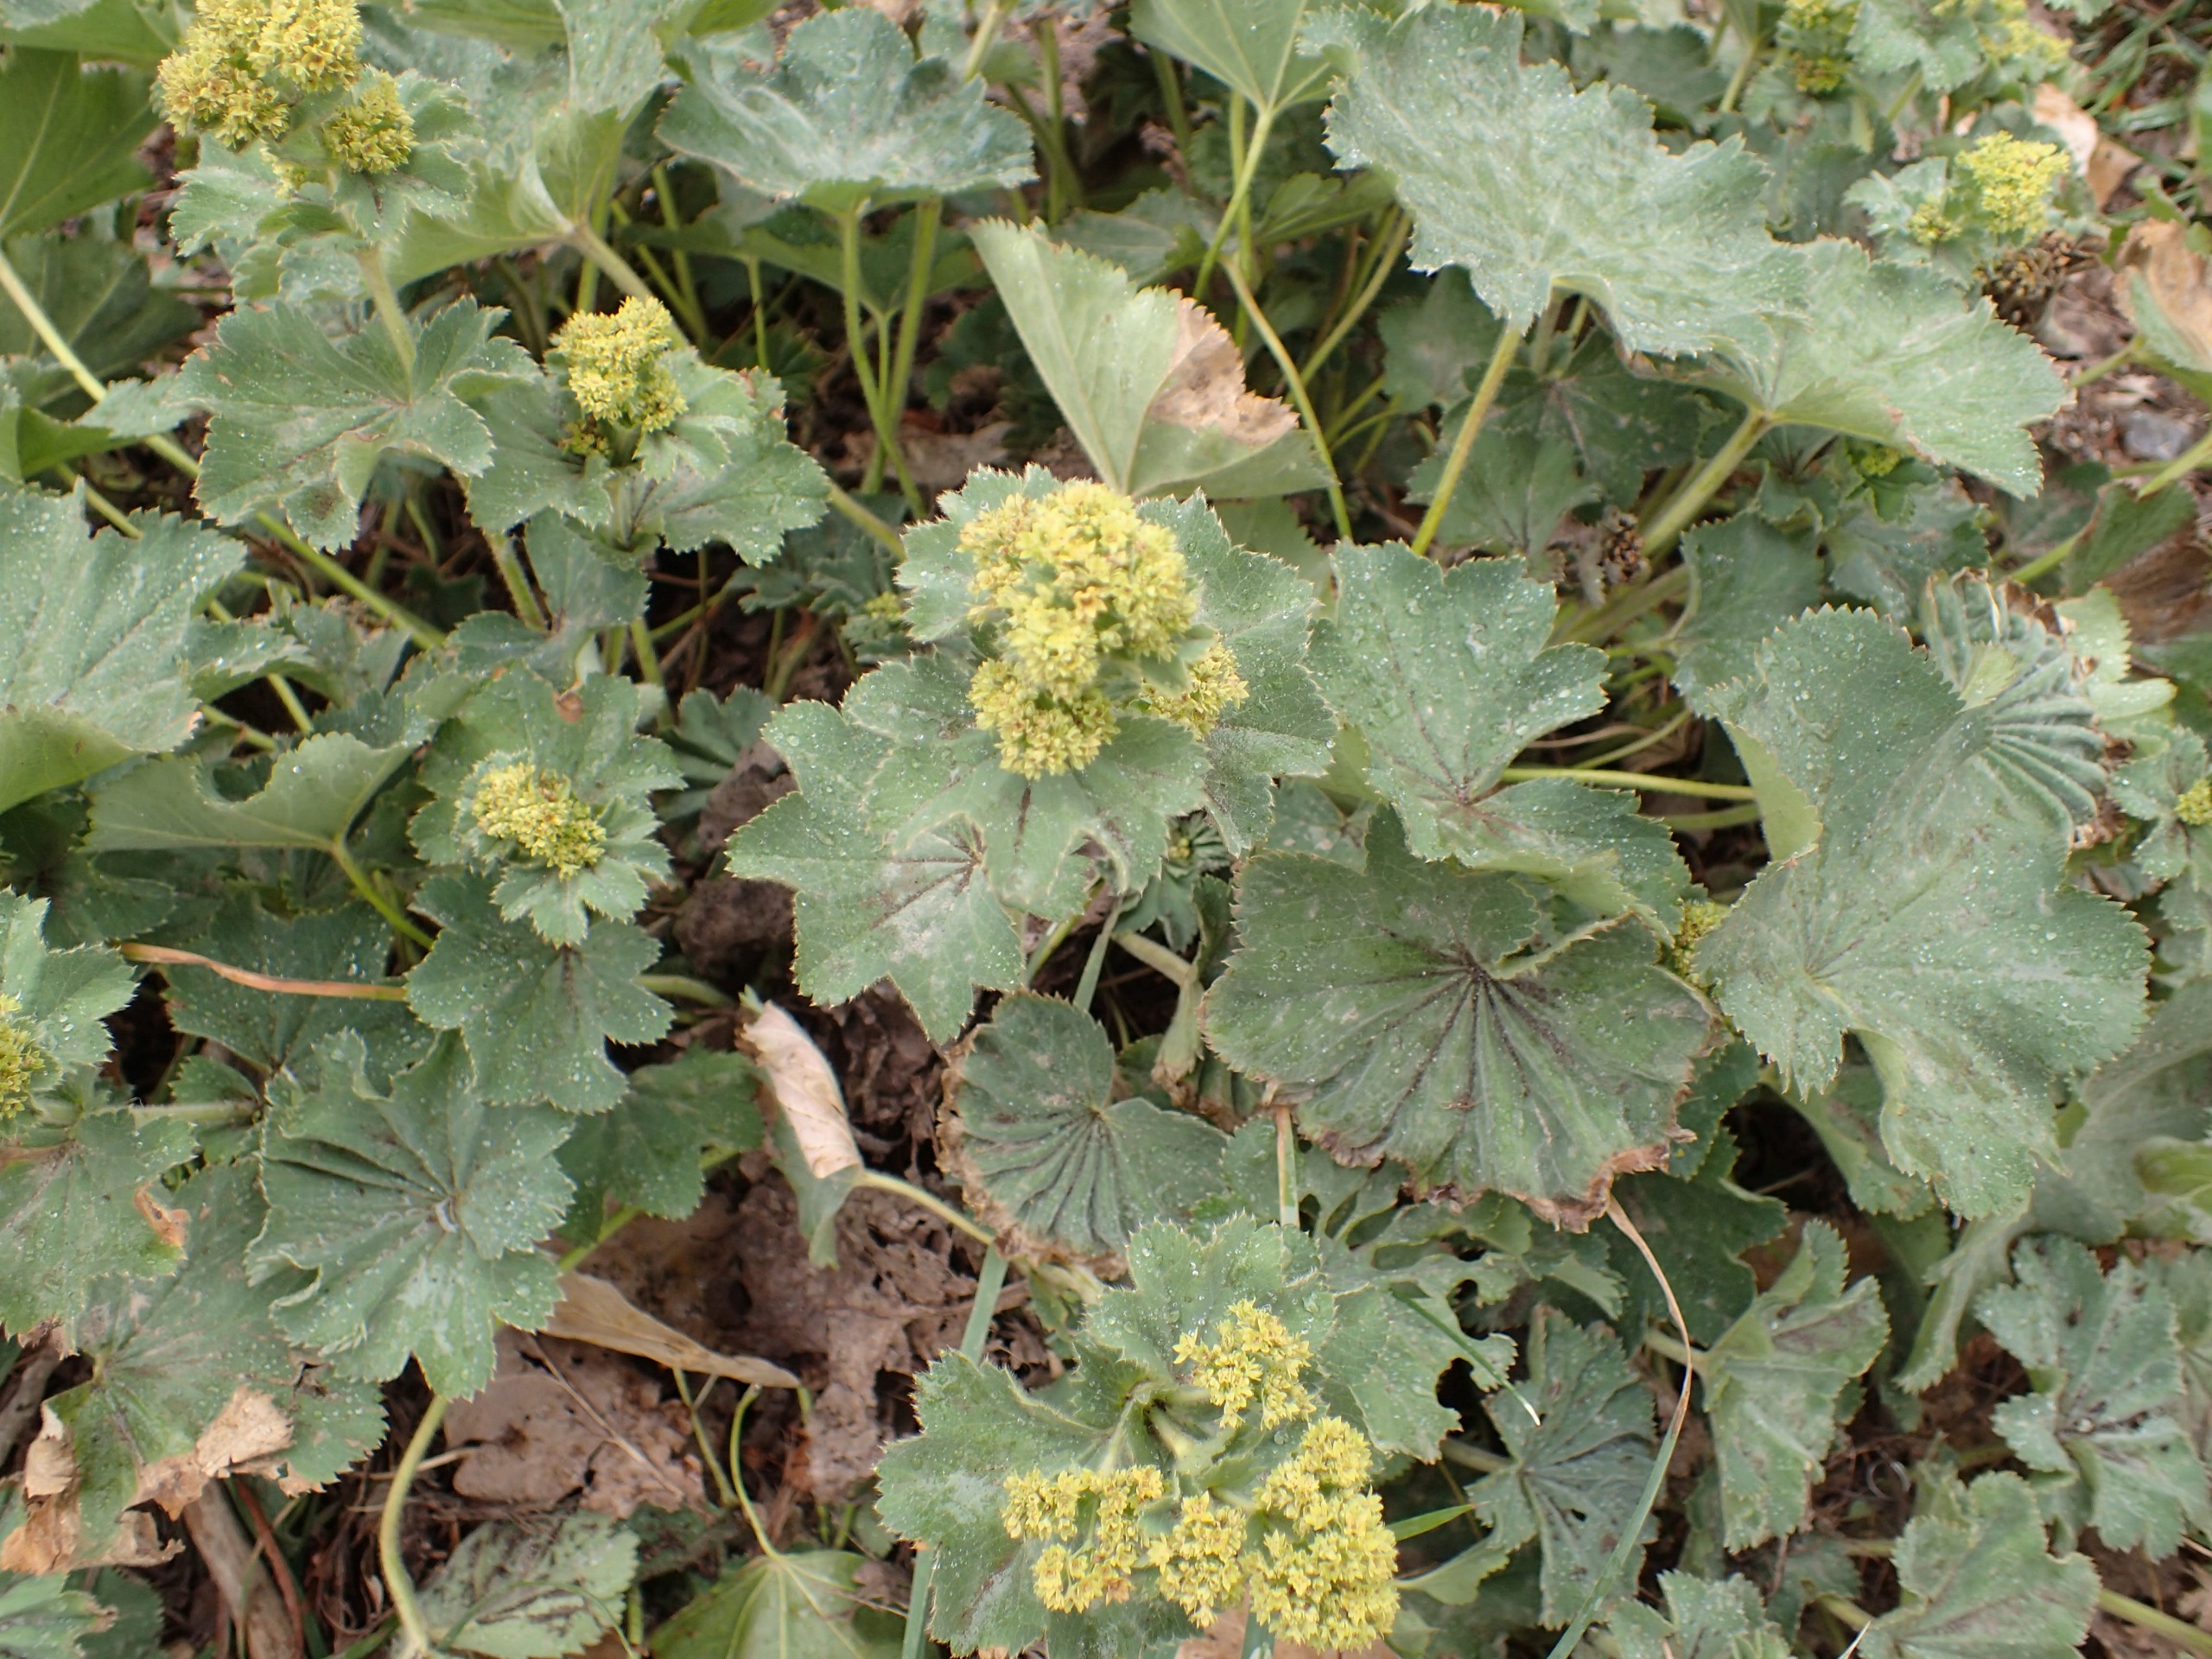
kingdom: Plantae
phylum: Tracheophyta
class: Magnoliopsida
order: Rosales
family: Rosaceae
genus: Alchemilla
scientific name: Alchemilla mollis
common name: Lådden løvefod
